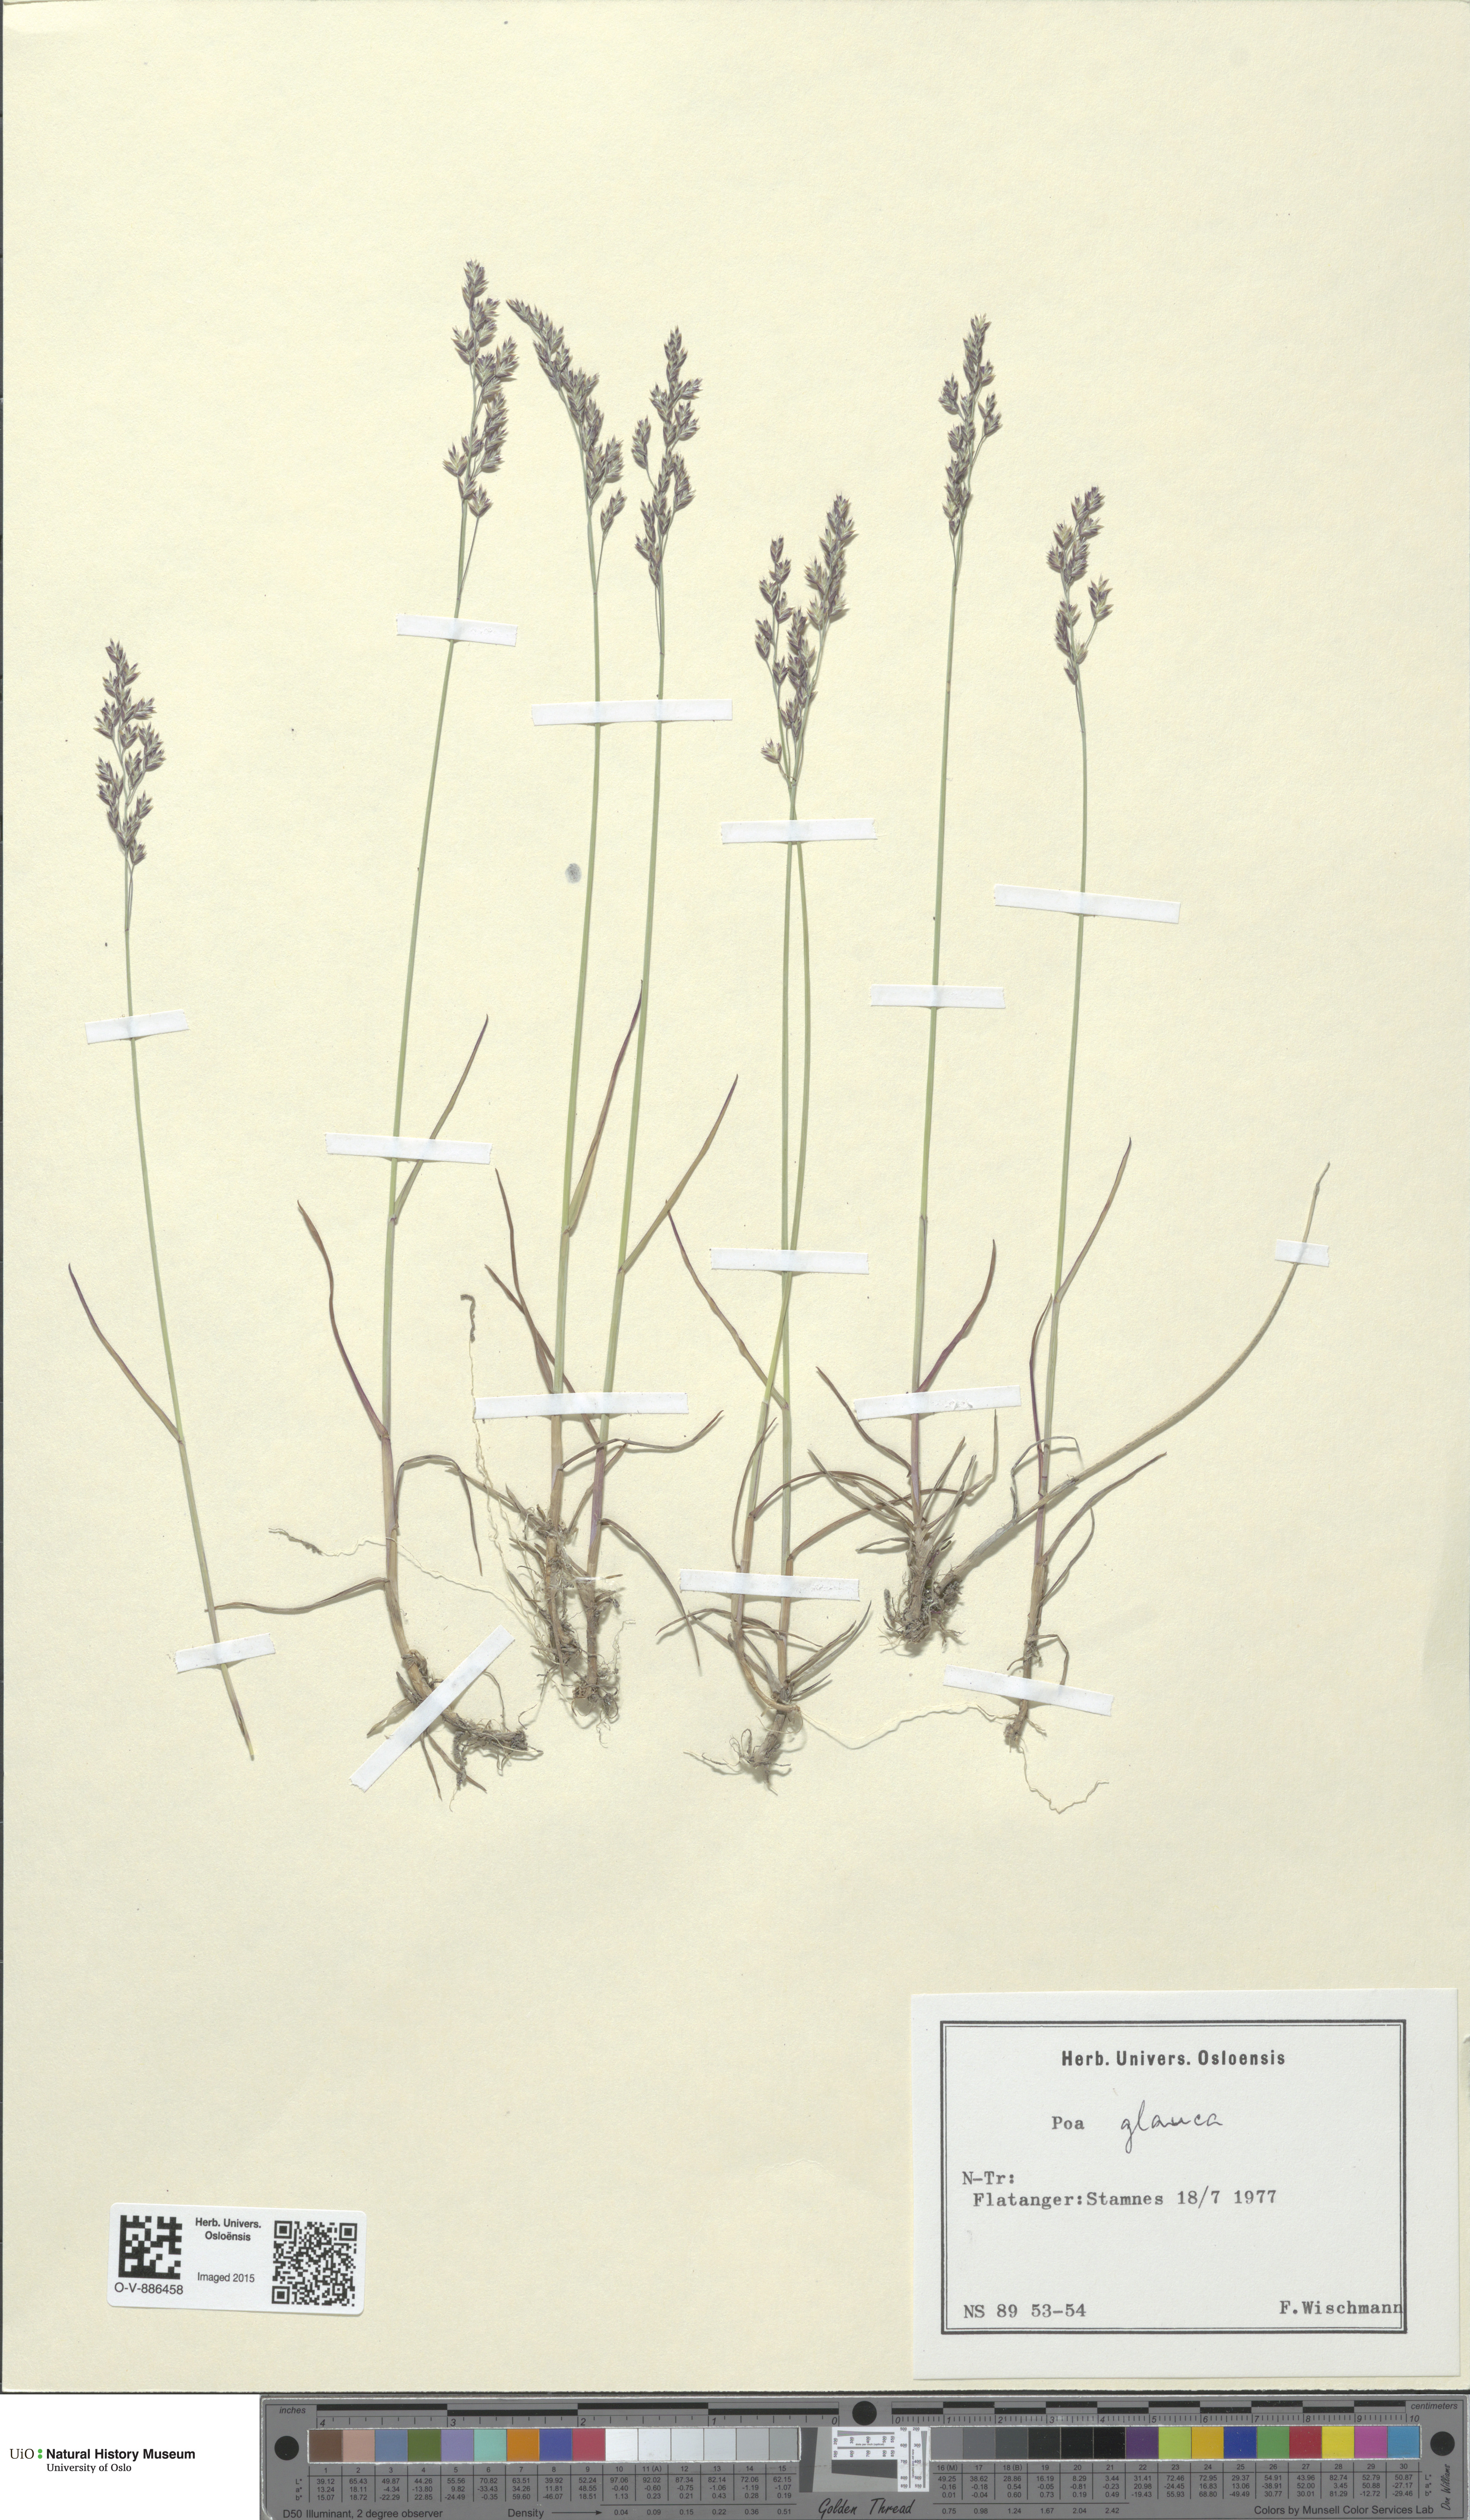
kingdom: Plantae
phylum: Tracheophyta
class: Liliopsida
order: Poales
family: Poaceae
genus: Poa
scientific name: Poa glauca
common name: Glaucous bluegrass
